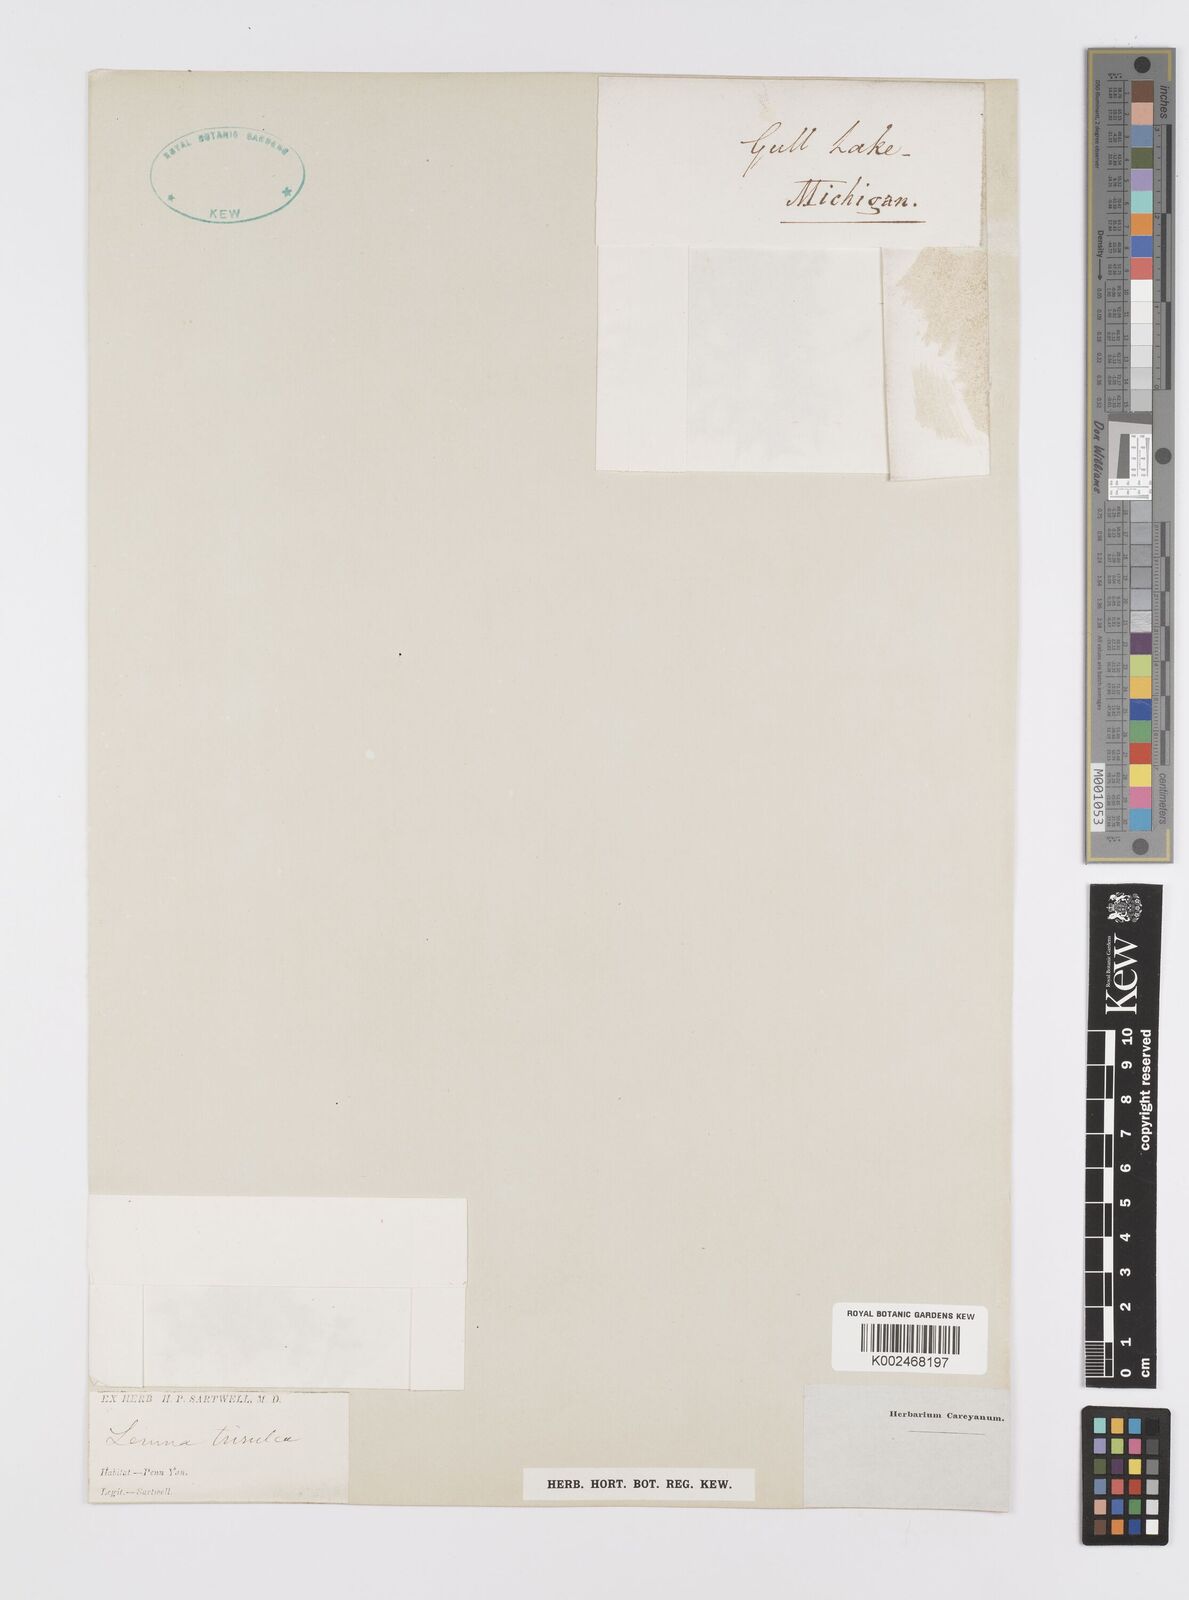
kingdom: Plantae
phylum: Tracheophyta
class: Liliopsida
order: Alismatales
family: Araceae
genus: Lemna
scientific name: Lemna trisulca
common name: Ivy-leaved duckweed
